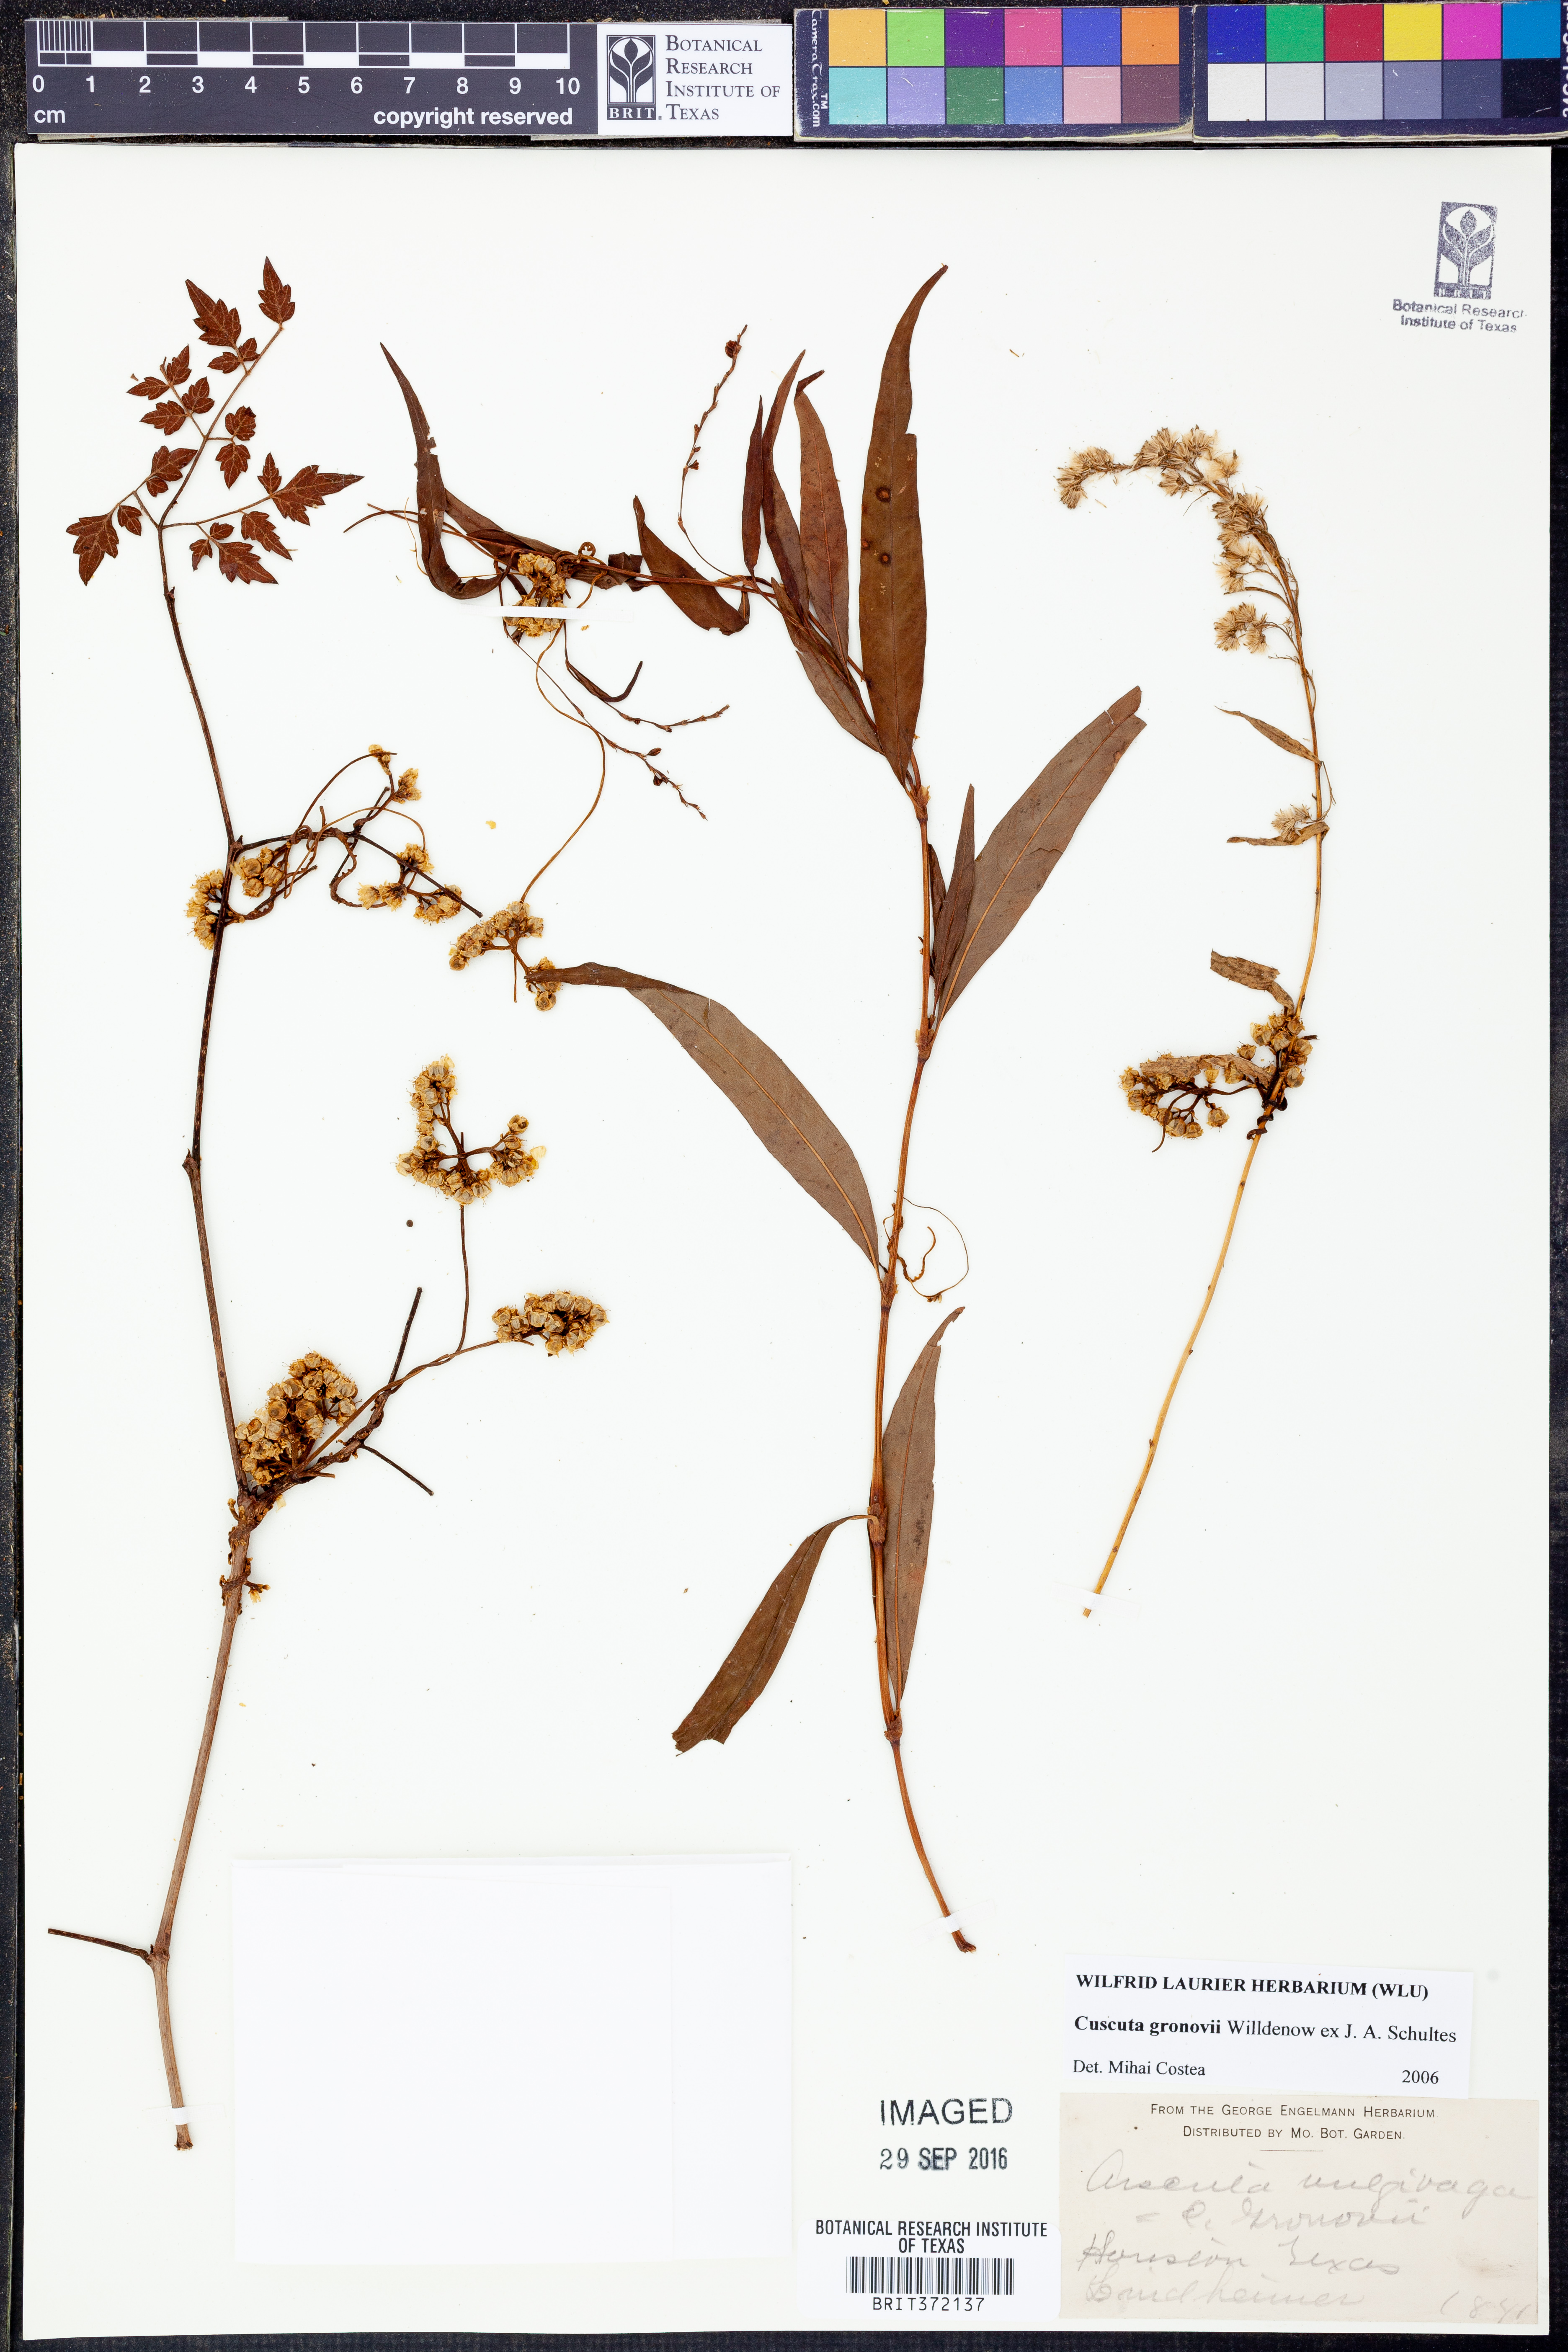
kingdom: Plantae
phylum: Tracheophyta
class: Magnoliopsida
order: Solanales
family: Convolvulaceae
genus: Cuscuta
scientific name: Cuscuta gronovii
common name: Common dodder
